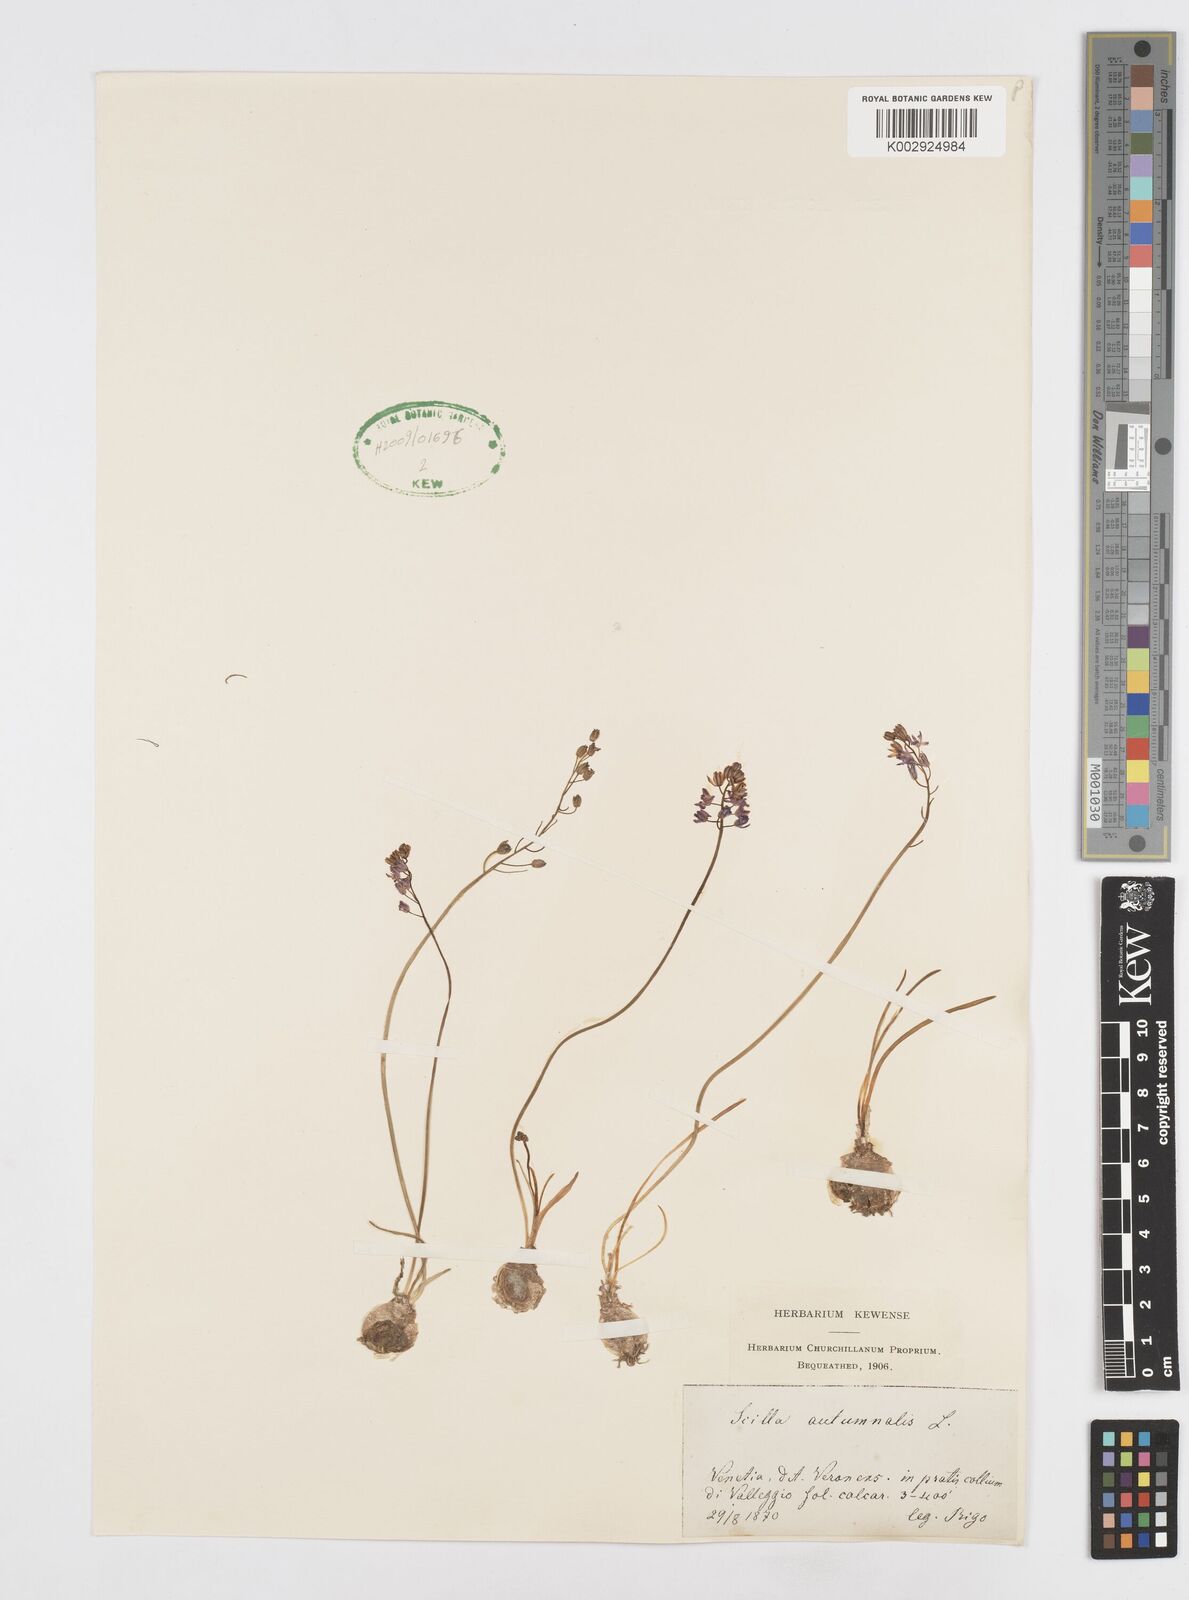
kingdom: Plantae
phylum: Tracheophyta
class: Liliopsida
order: Asparagales
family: Asparagaceae
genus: Prospero
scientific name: Prospero autumnale
